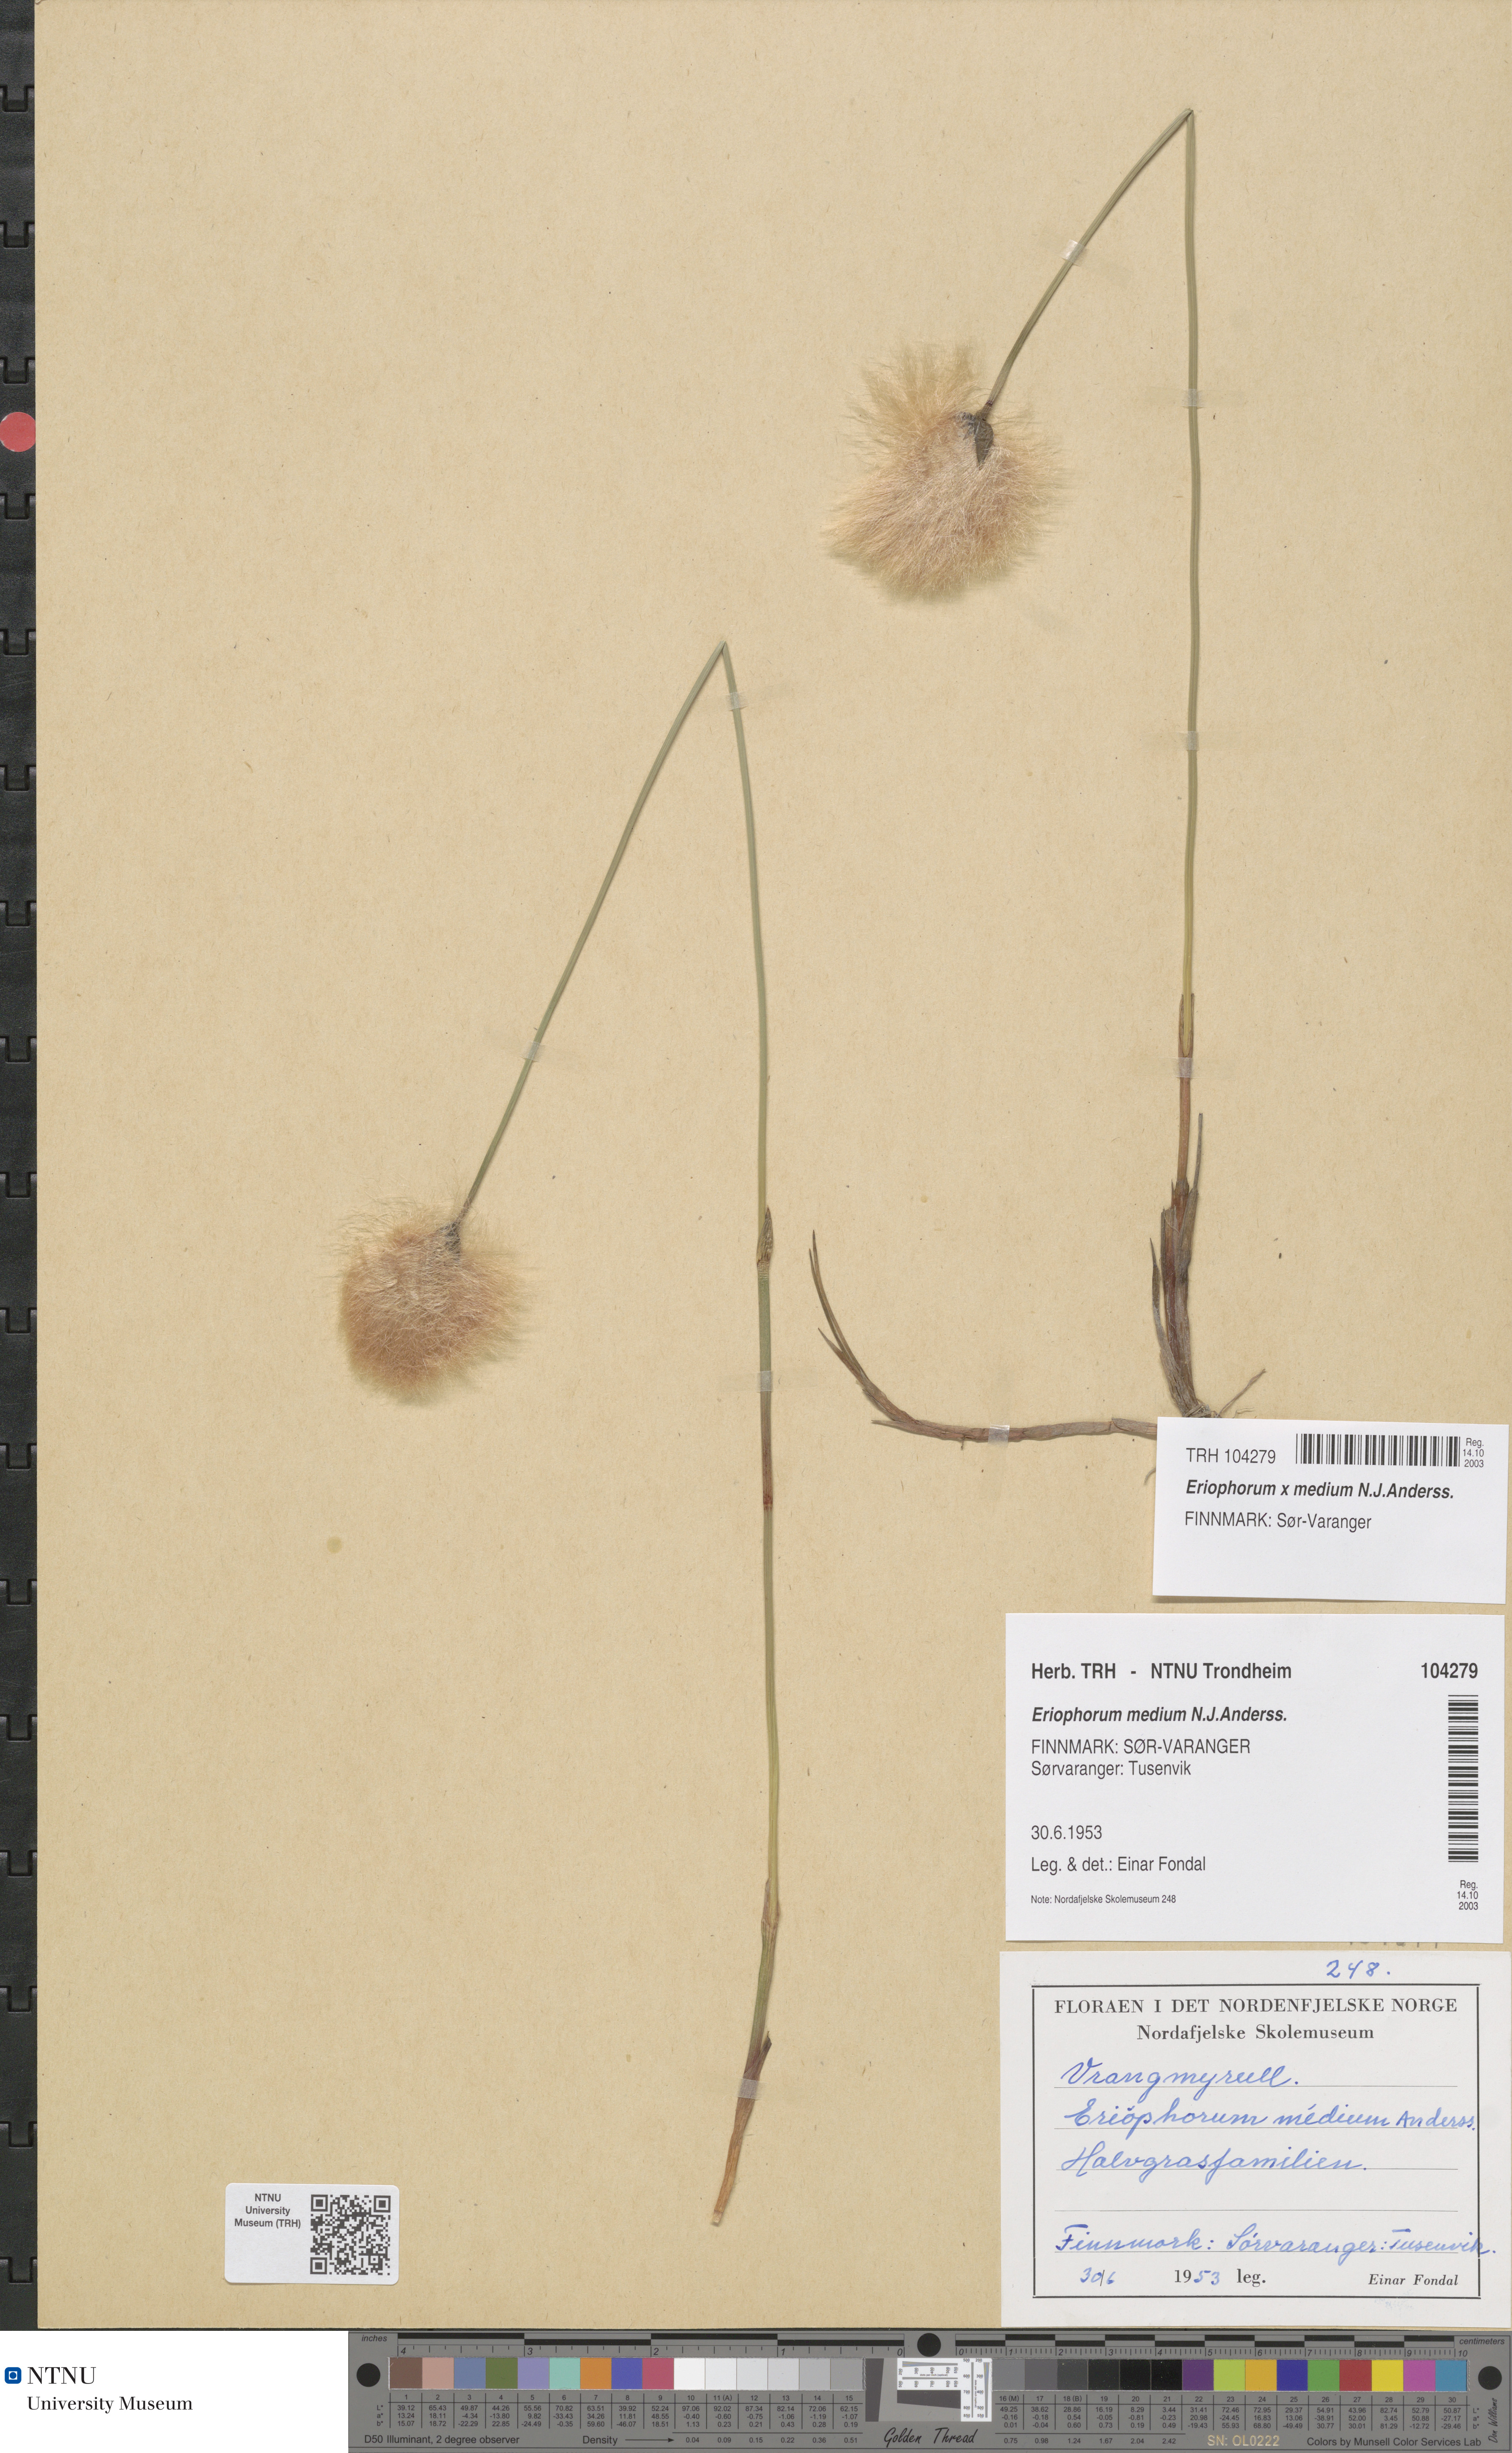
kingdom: Plantae
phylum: Tracheophyta
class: Liliopsida
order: Poales
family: Cyperaceae
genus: Eriophorum
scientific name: Eriophorum medium
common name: Intermediate cottongrass
